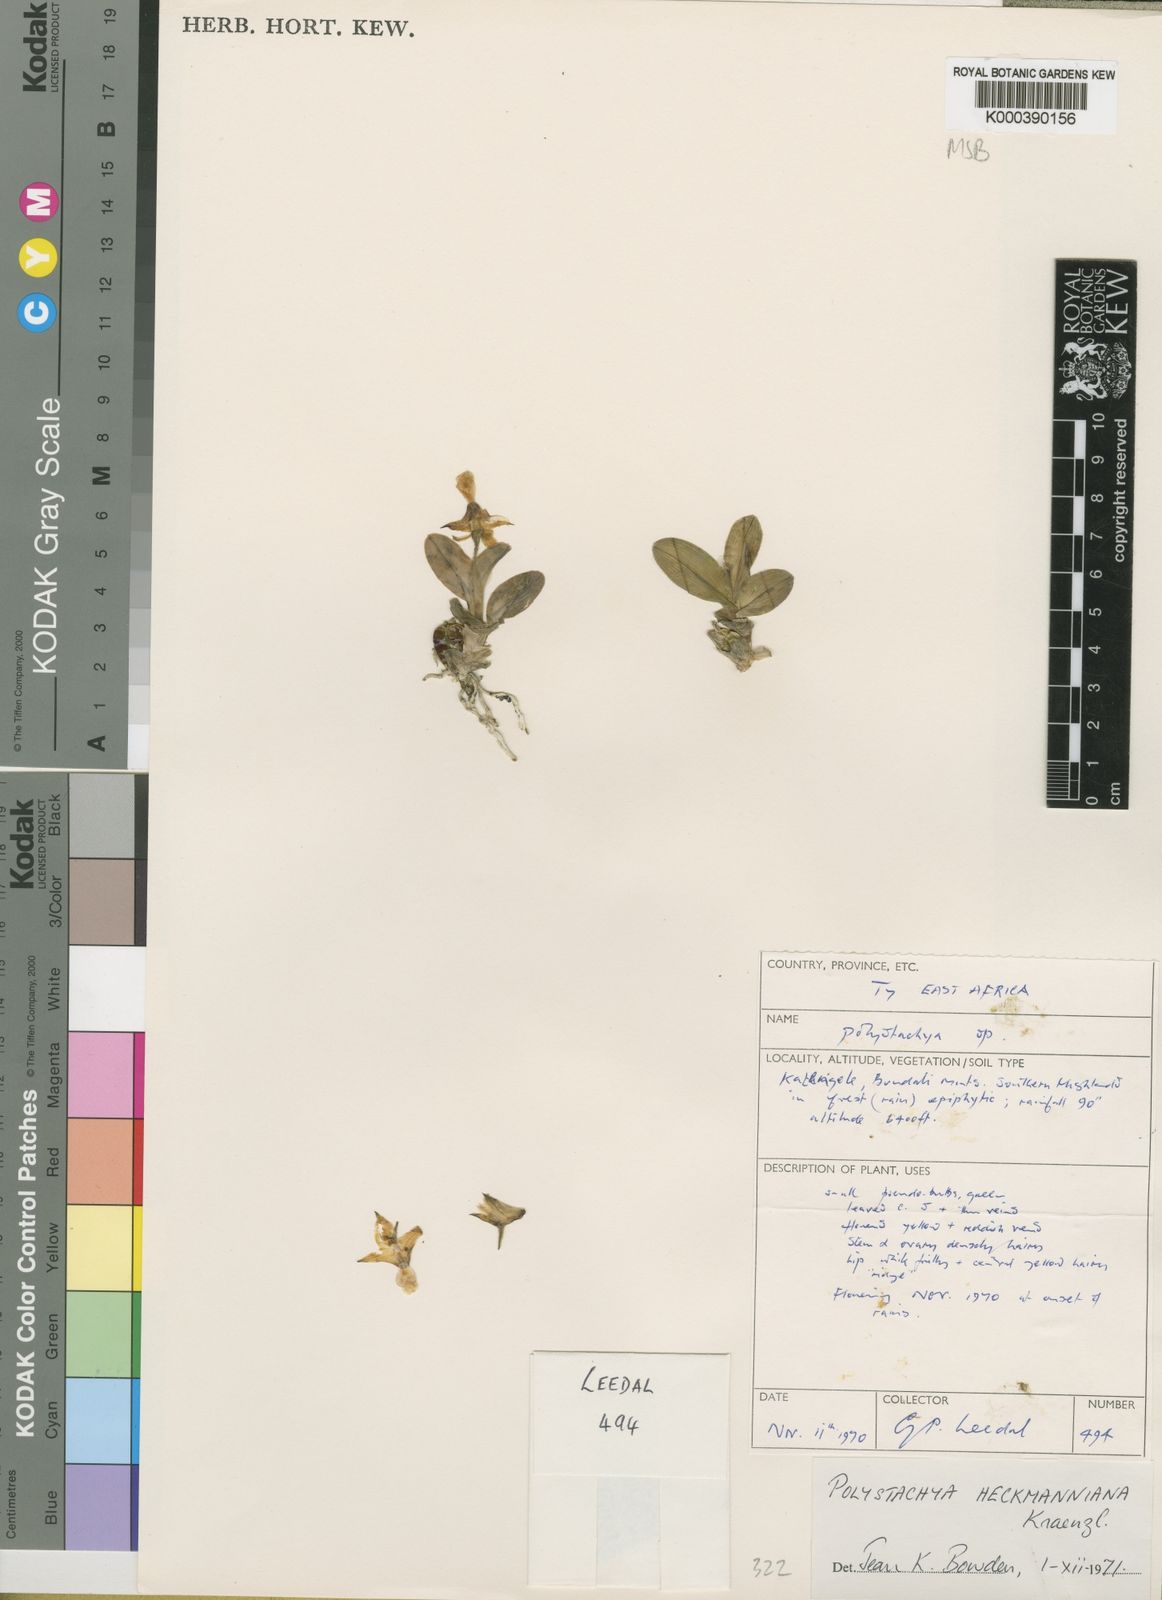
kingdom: Plantae
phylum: Tracheophyta
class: Liliopsida
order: Asparagales
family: Orchidaceae
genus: Polystachya
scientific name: Polystachya heckmanniana
